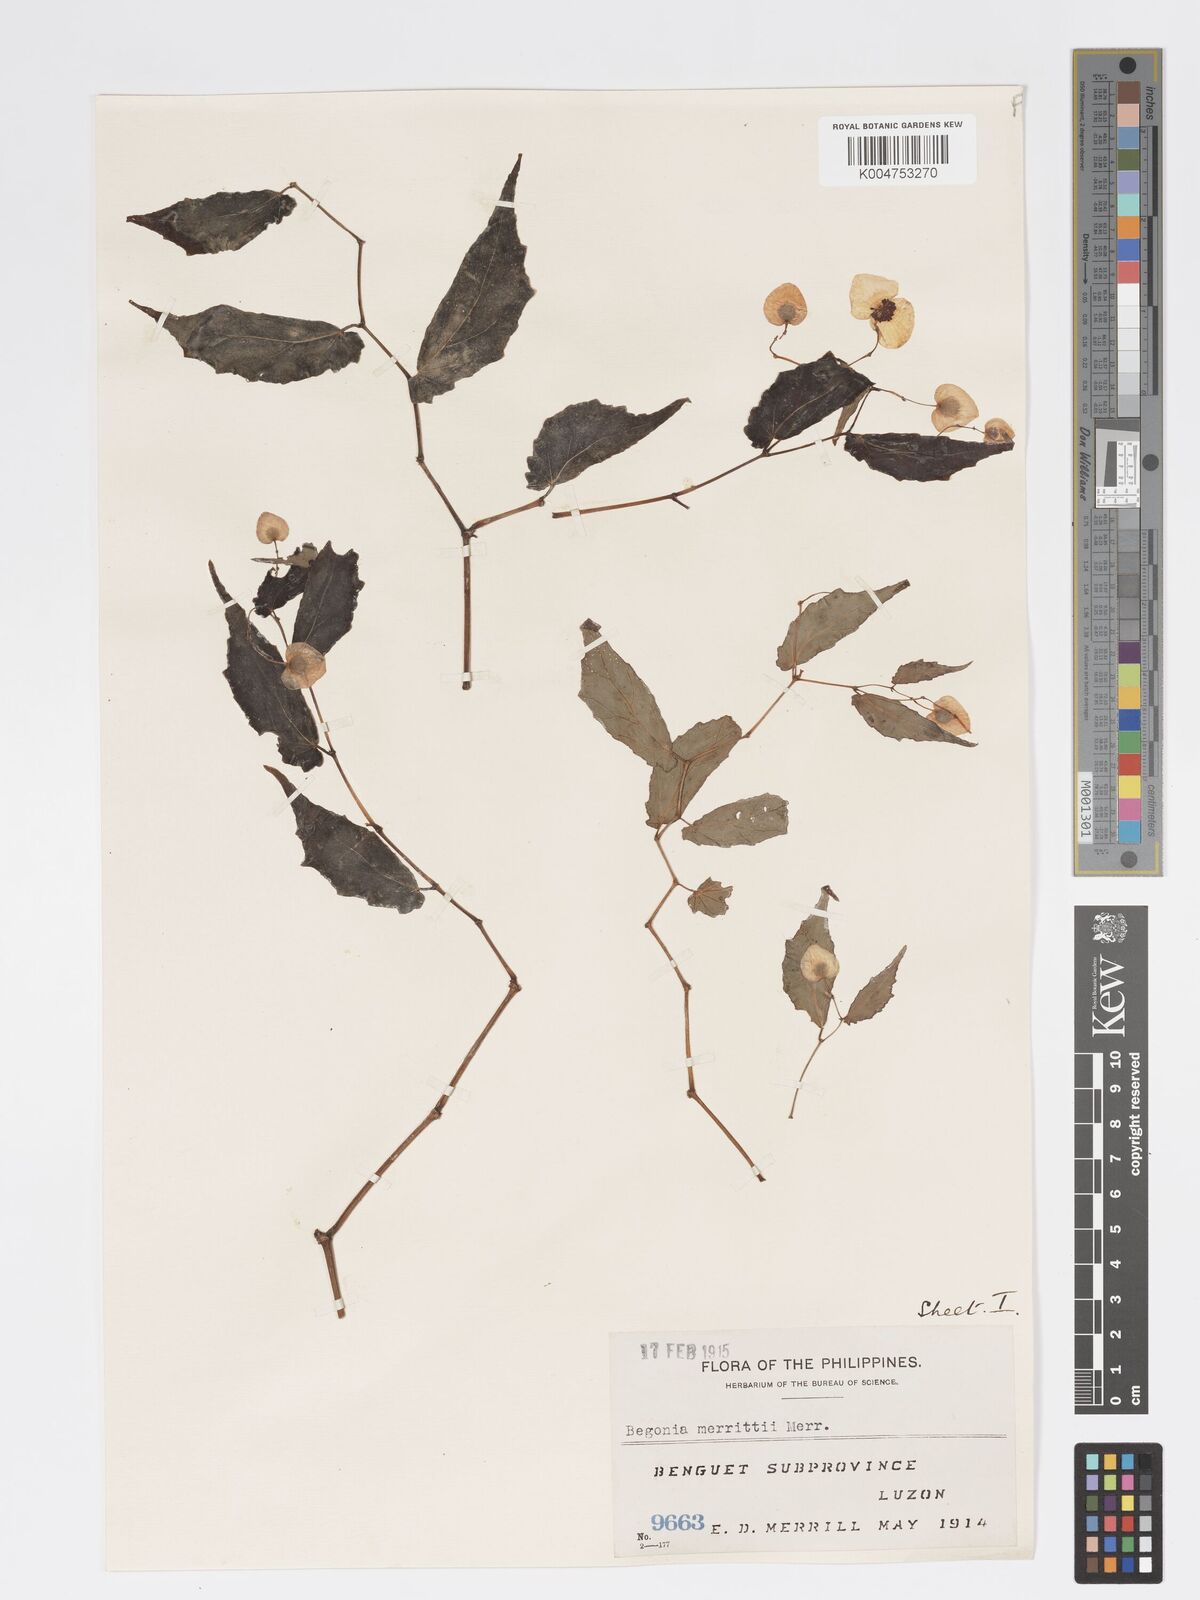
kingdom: Plantae
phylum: Tracheophyta
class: Magnoliopsida
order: Cucurbitales
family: Begoniaceae
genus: Begonia
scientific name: Begonia merrittii
